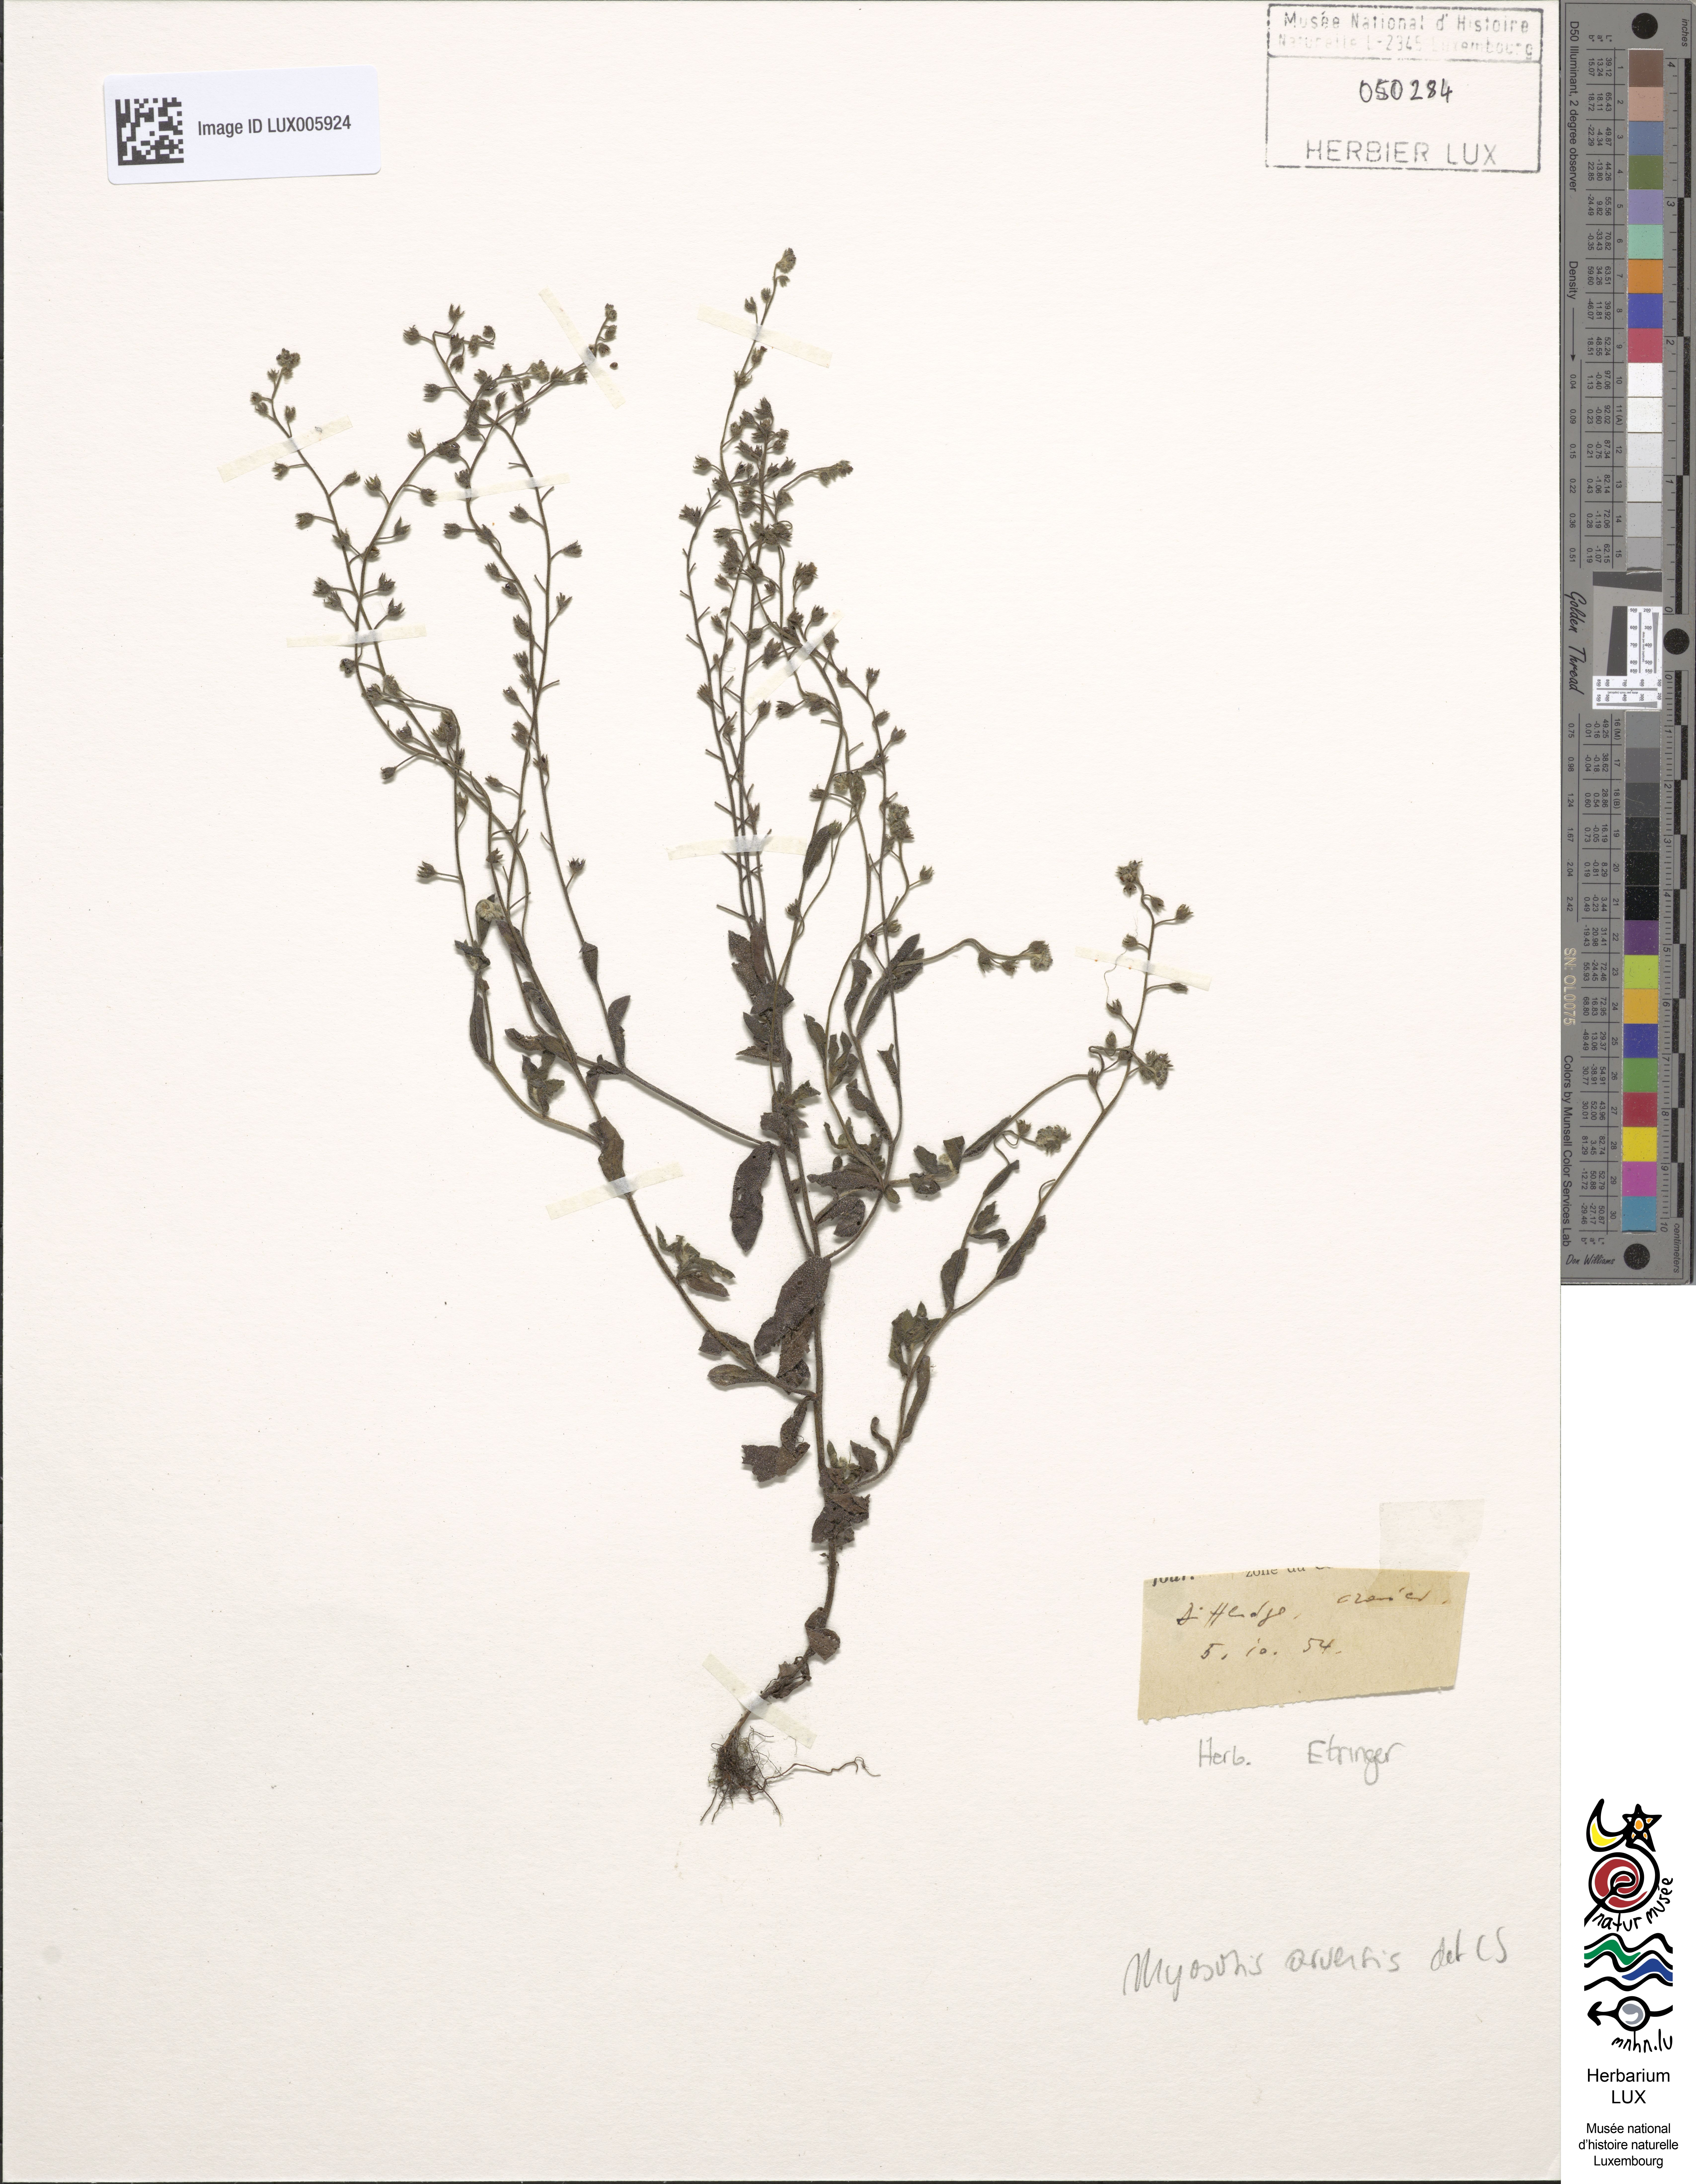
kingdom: Plantae
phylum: Tracheophyta
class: Magnoliopsida
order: Boraginales
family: Boraginaceae
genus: Myosotis
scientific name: Myosotis arvensis
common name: Field forget-me-not
